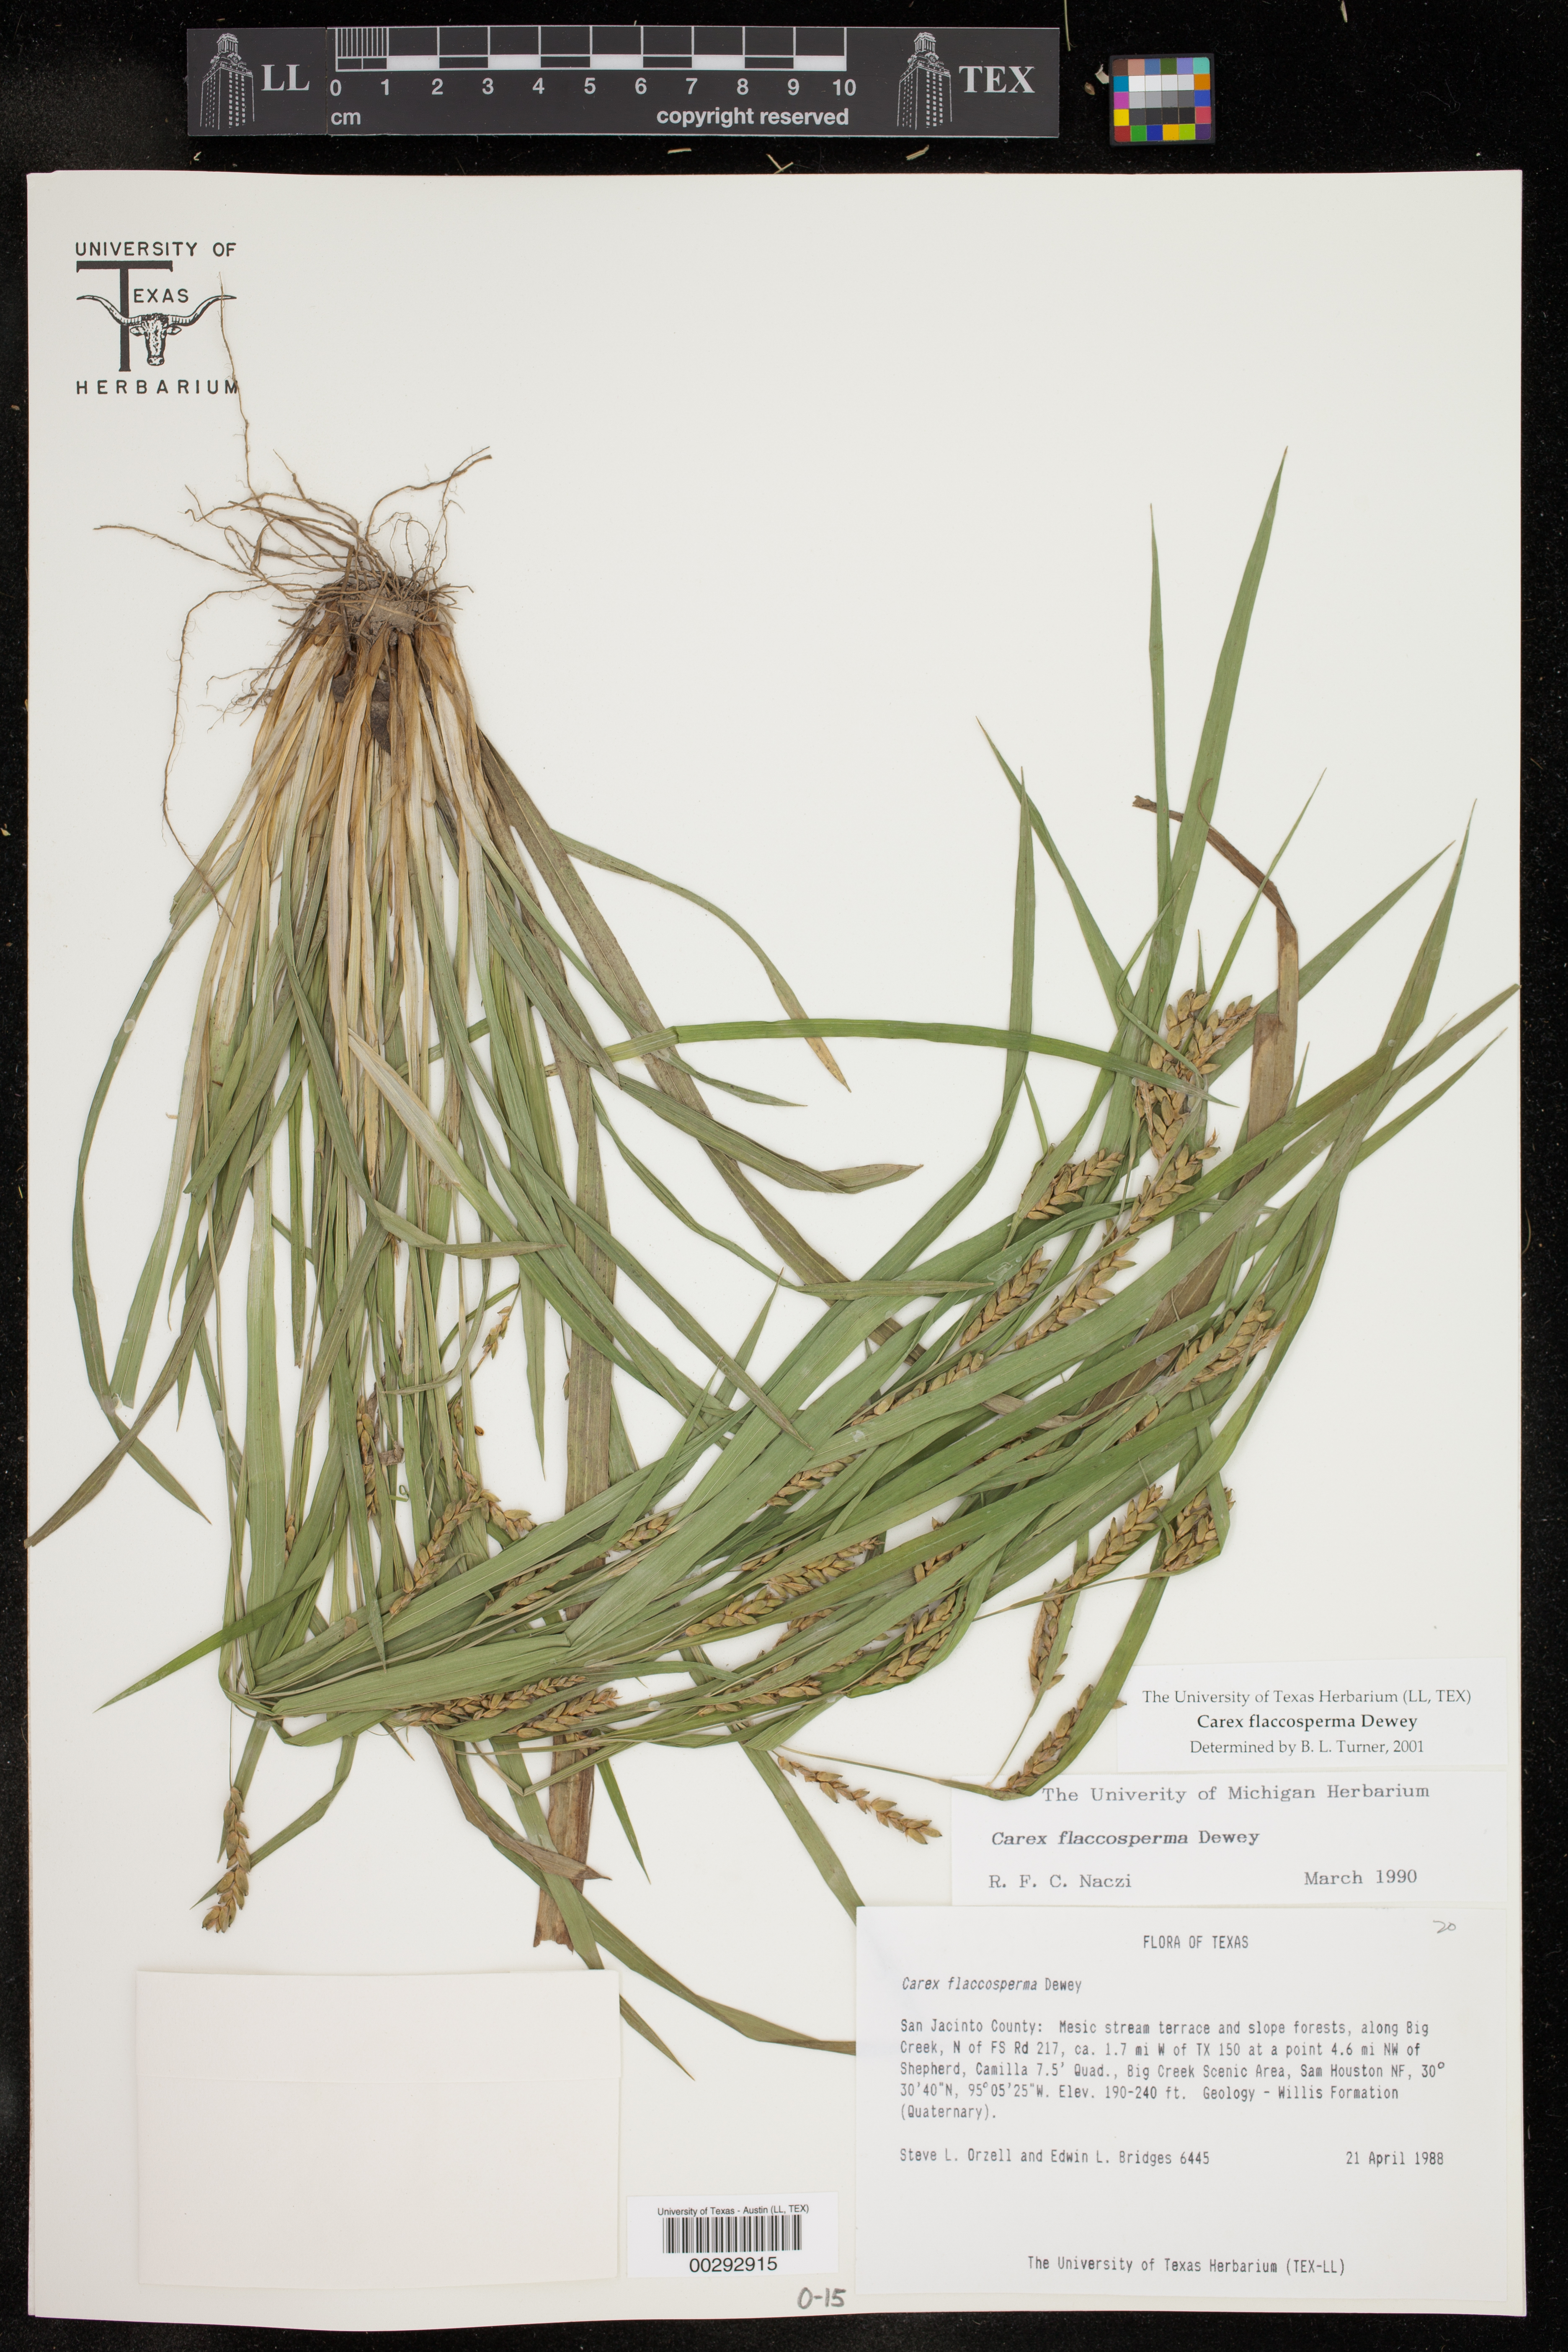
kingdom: Plantae
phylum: Tracheophyta
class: Liliopsida
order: Poales
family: Cyperaceae
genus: Carex
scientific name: Carex flaccosperma
